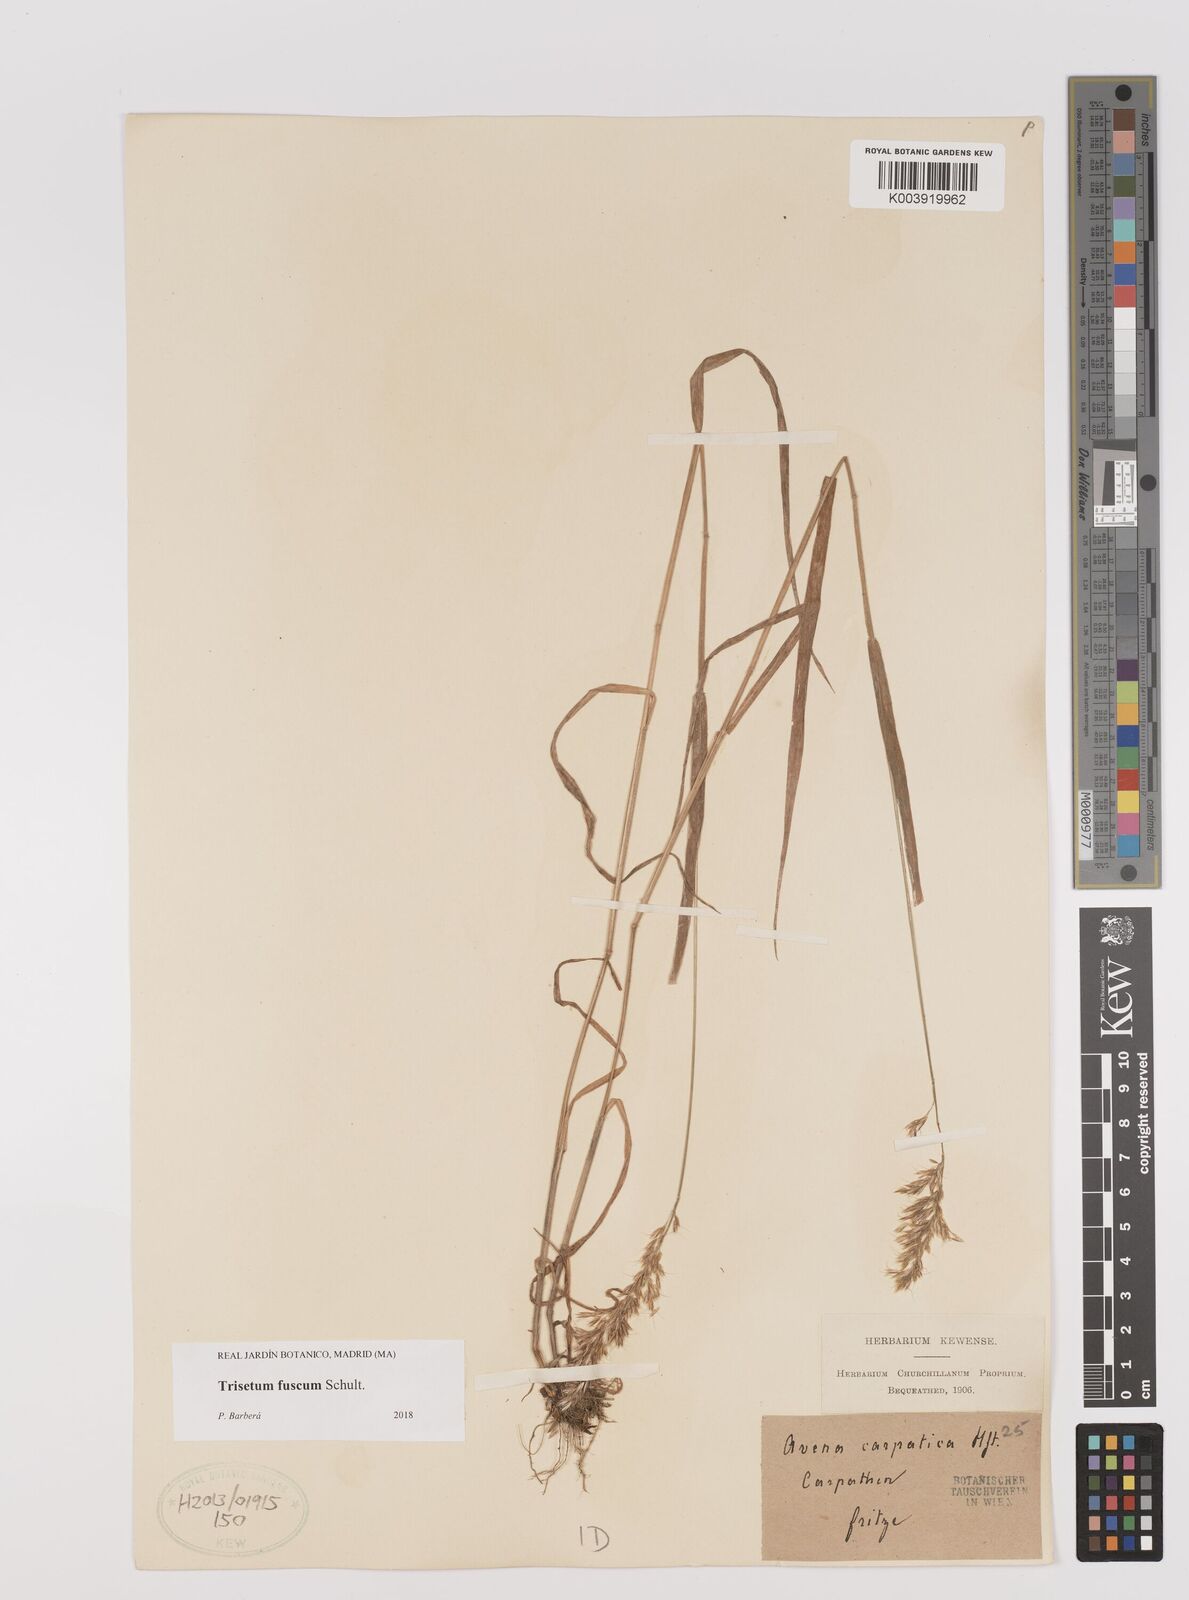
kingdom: Plantae
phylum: Tracheophyta
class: Liliopsida
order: Poales
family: Poaceae
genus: Trisetum
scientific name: Trisetum fuscum
